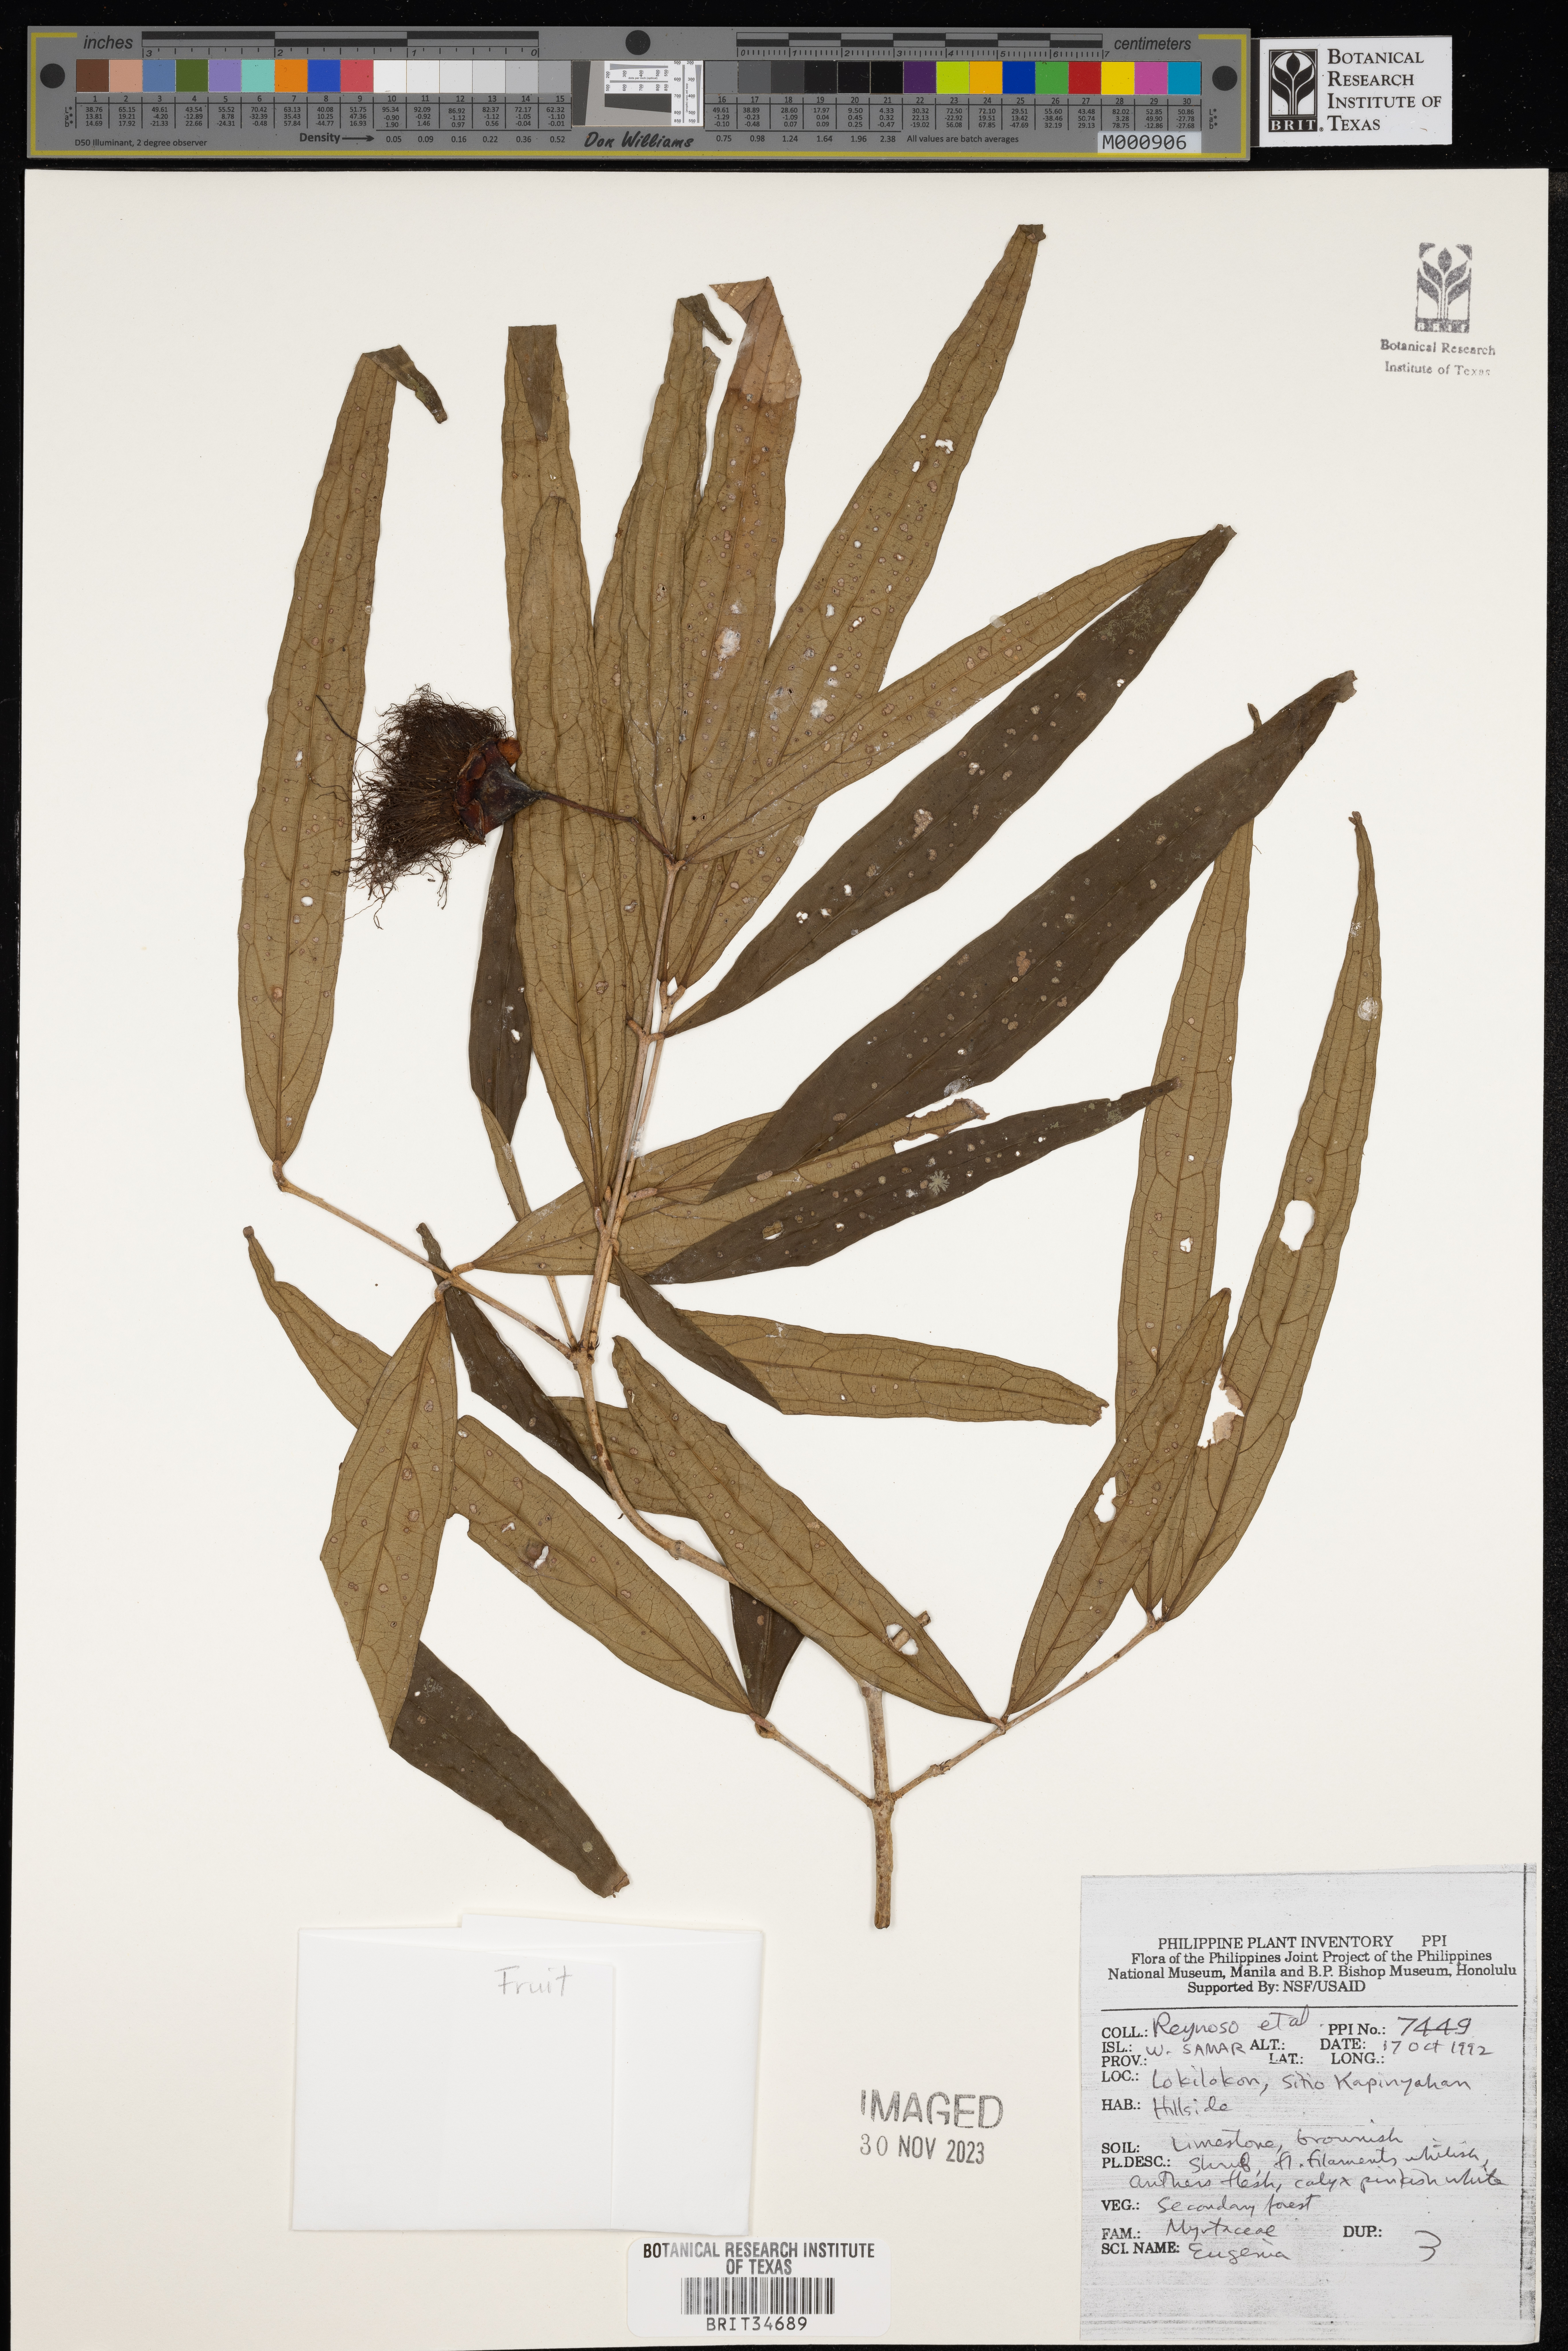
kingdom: Plantae
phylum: Tracheophyta
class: Magnoliopsida
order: Myrtales
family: Myrtaceae
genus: Eugenia
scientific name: Eugenia
